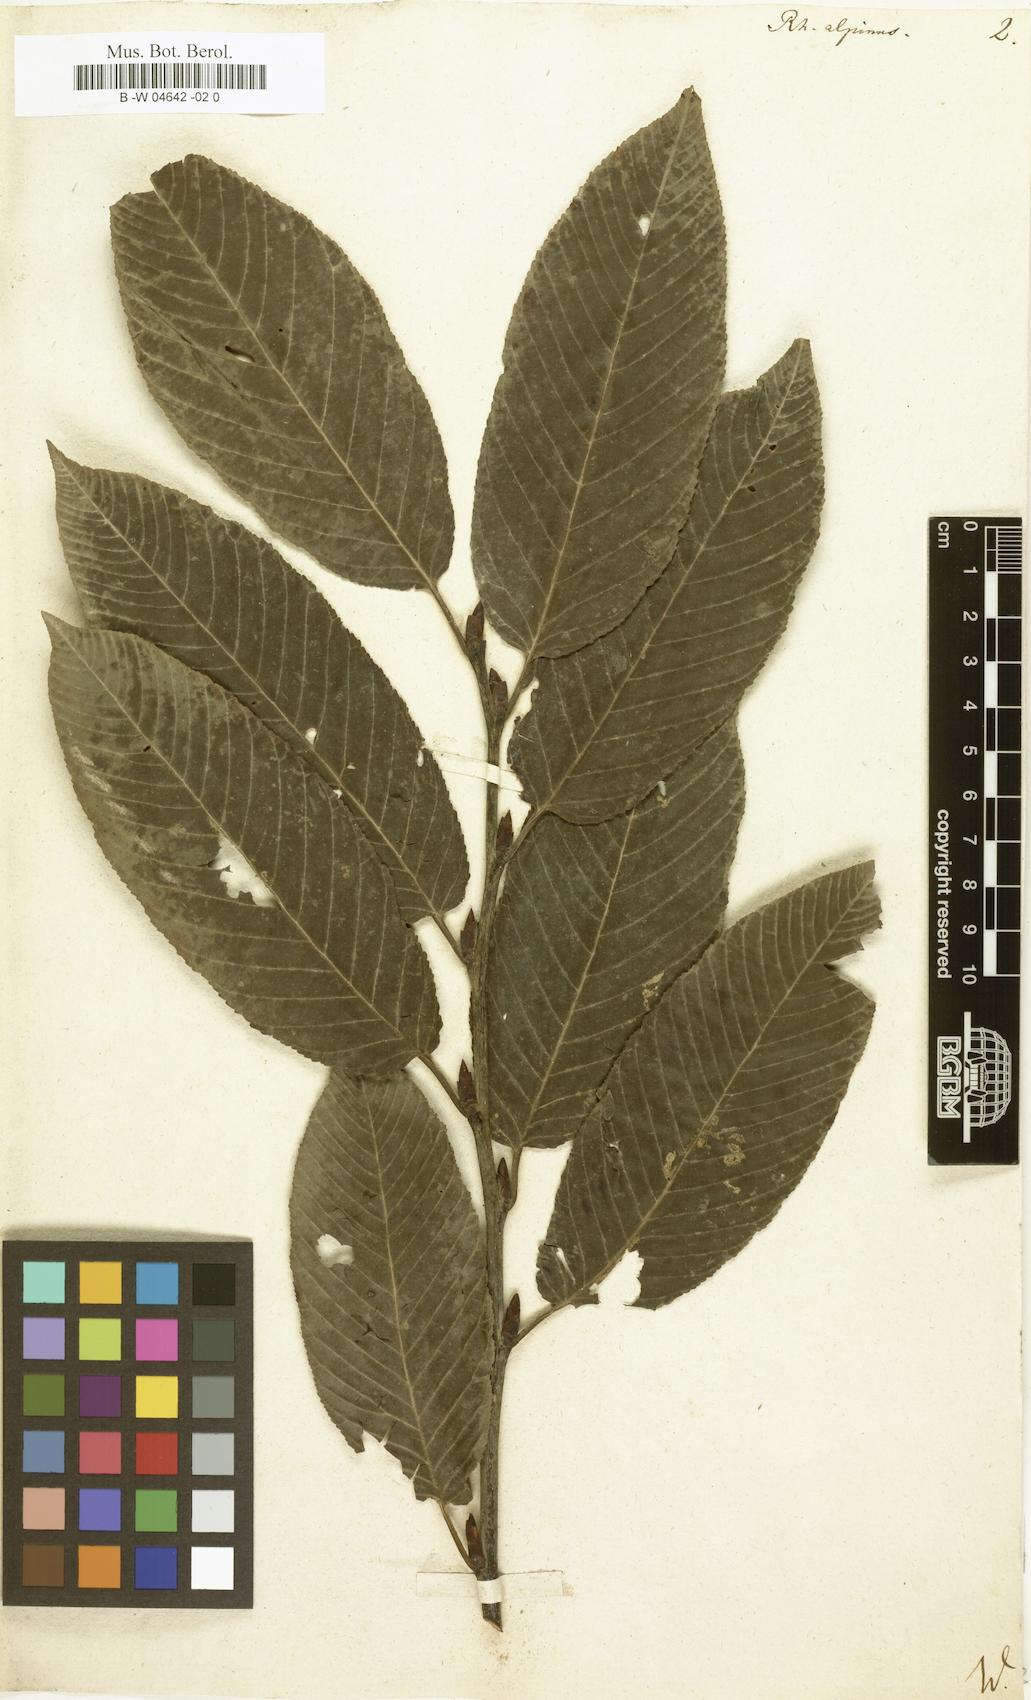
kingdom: Plantae
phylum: Tracheophyta
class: Magnoliopsida
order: Rosales
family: Rhamnaceae
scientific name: Rhamnaceae
